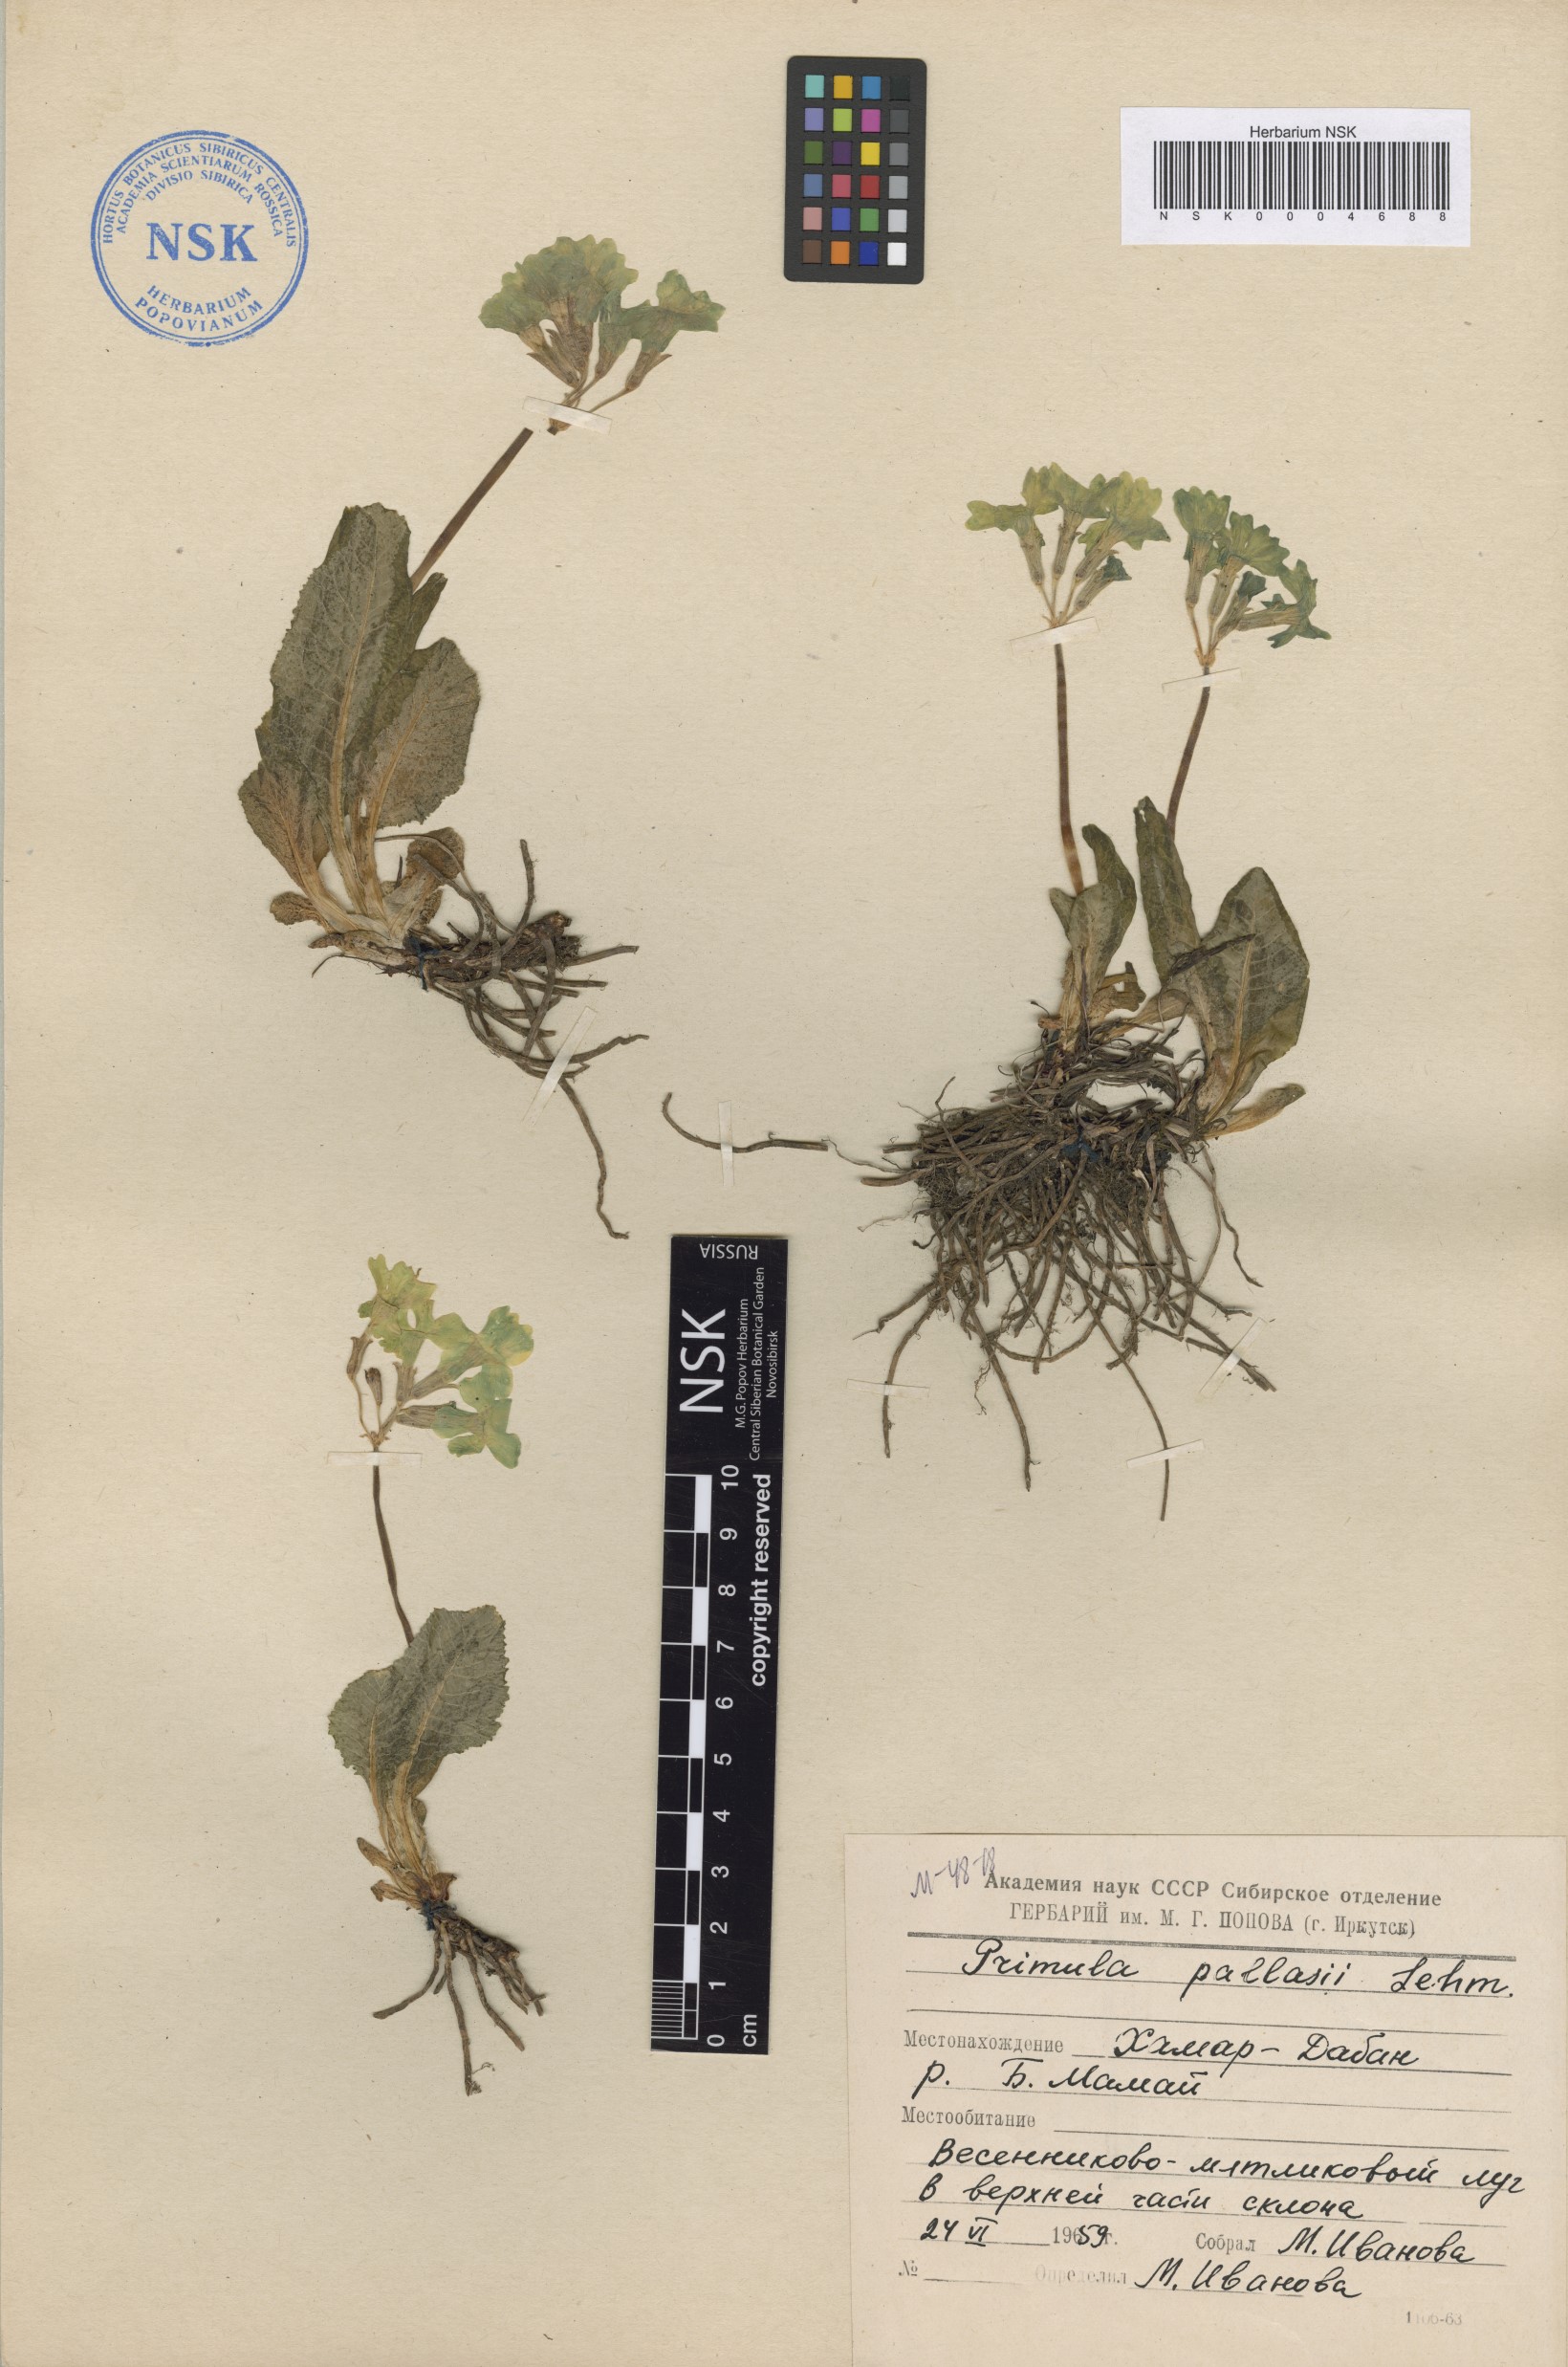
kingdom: Plantae
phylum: Tracheophyta
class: Magnoliopsida
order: Ericales
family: Primulaceae
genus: Primula
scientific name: Primula elatior
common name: Oxlip
